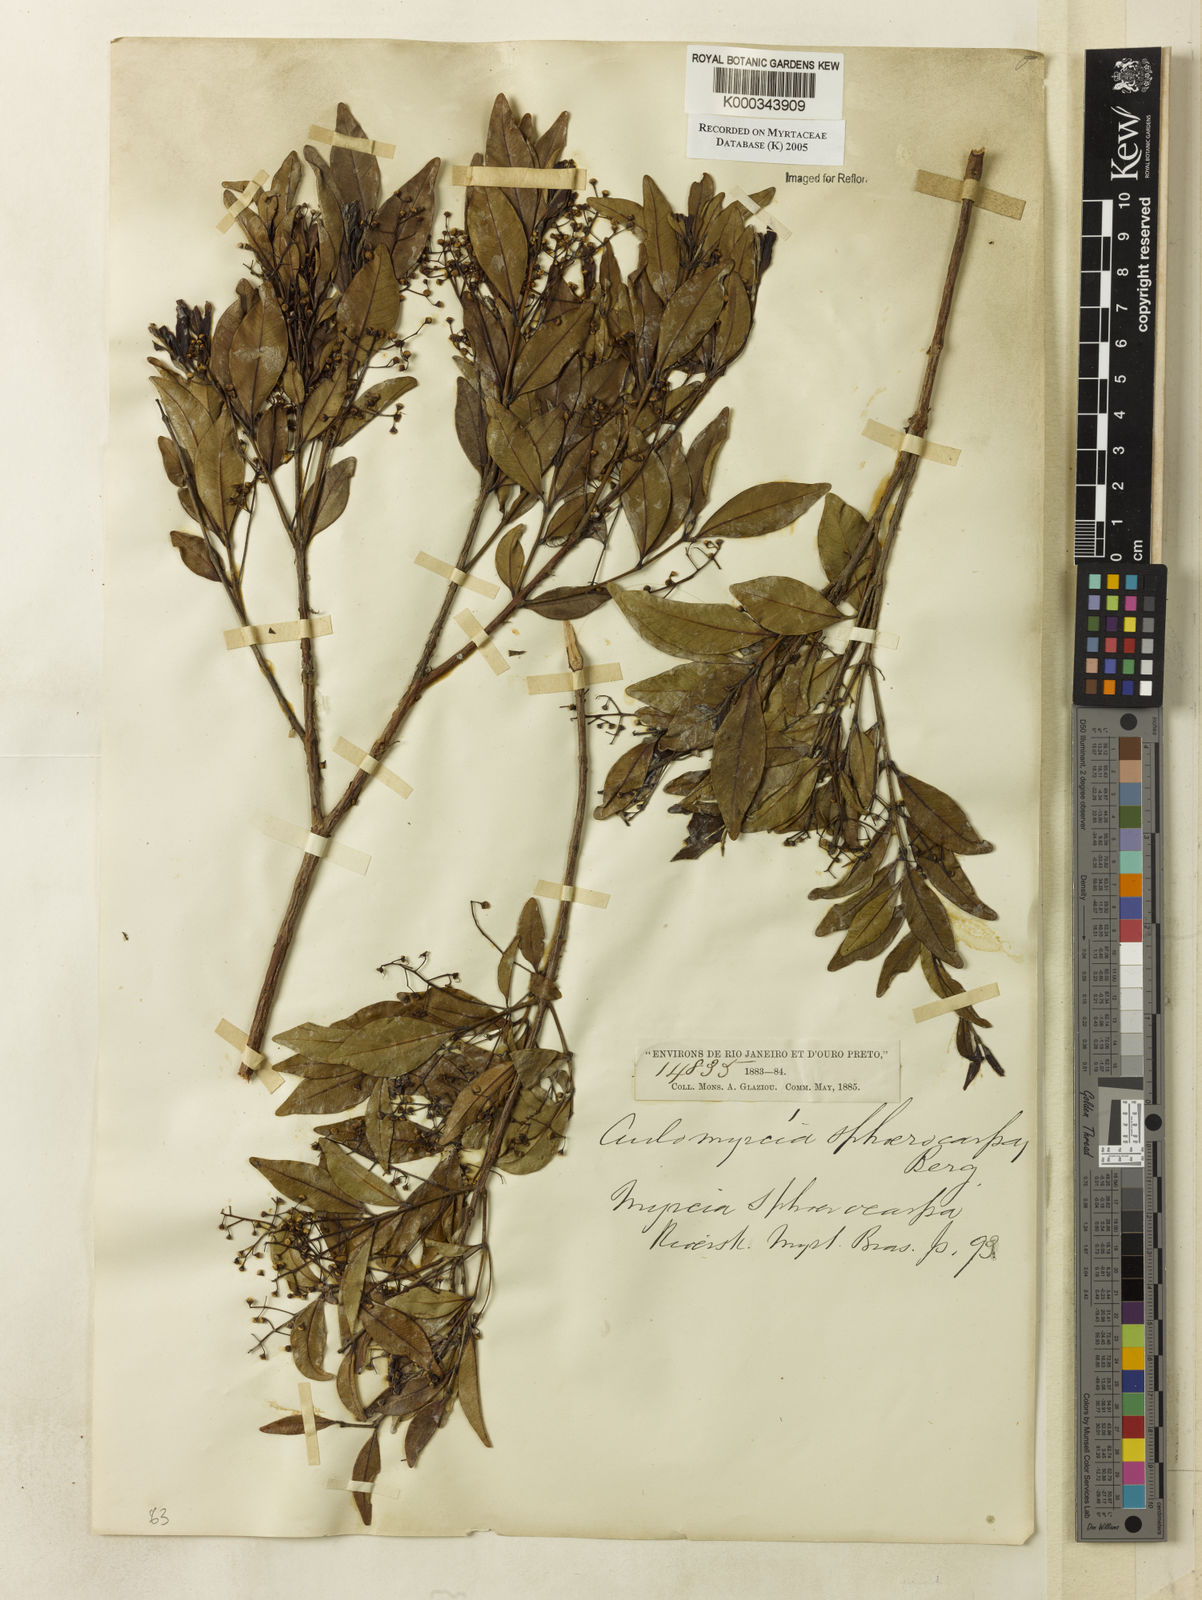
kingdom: Plantae
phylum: Tracheophyta
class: Magnoliopsida
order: Myrtales
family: Myrtaceae
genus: Myrcia
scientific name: Myrcia multiflora
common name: Pedra hume
